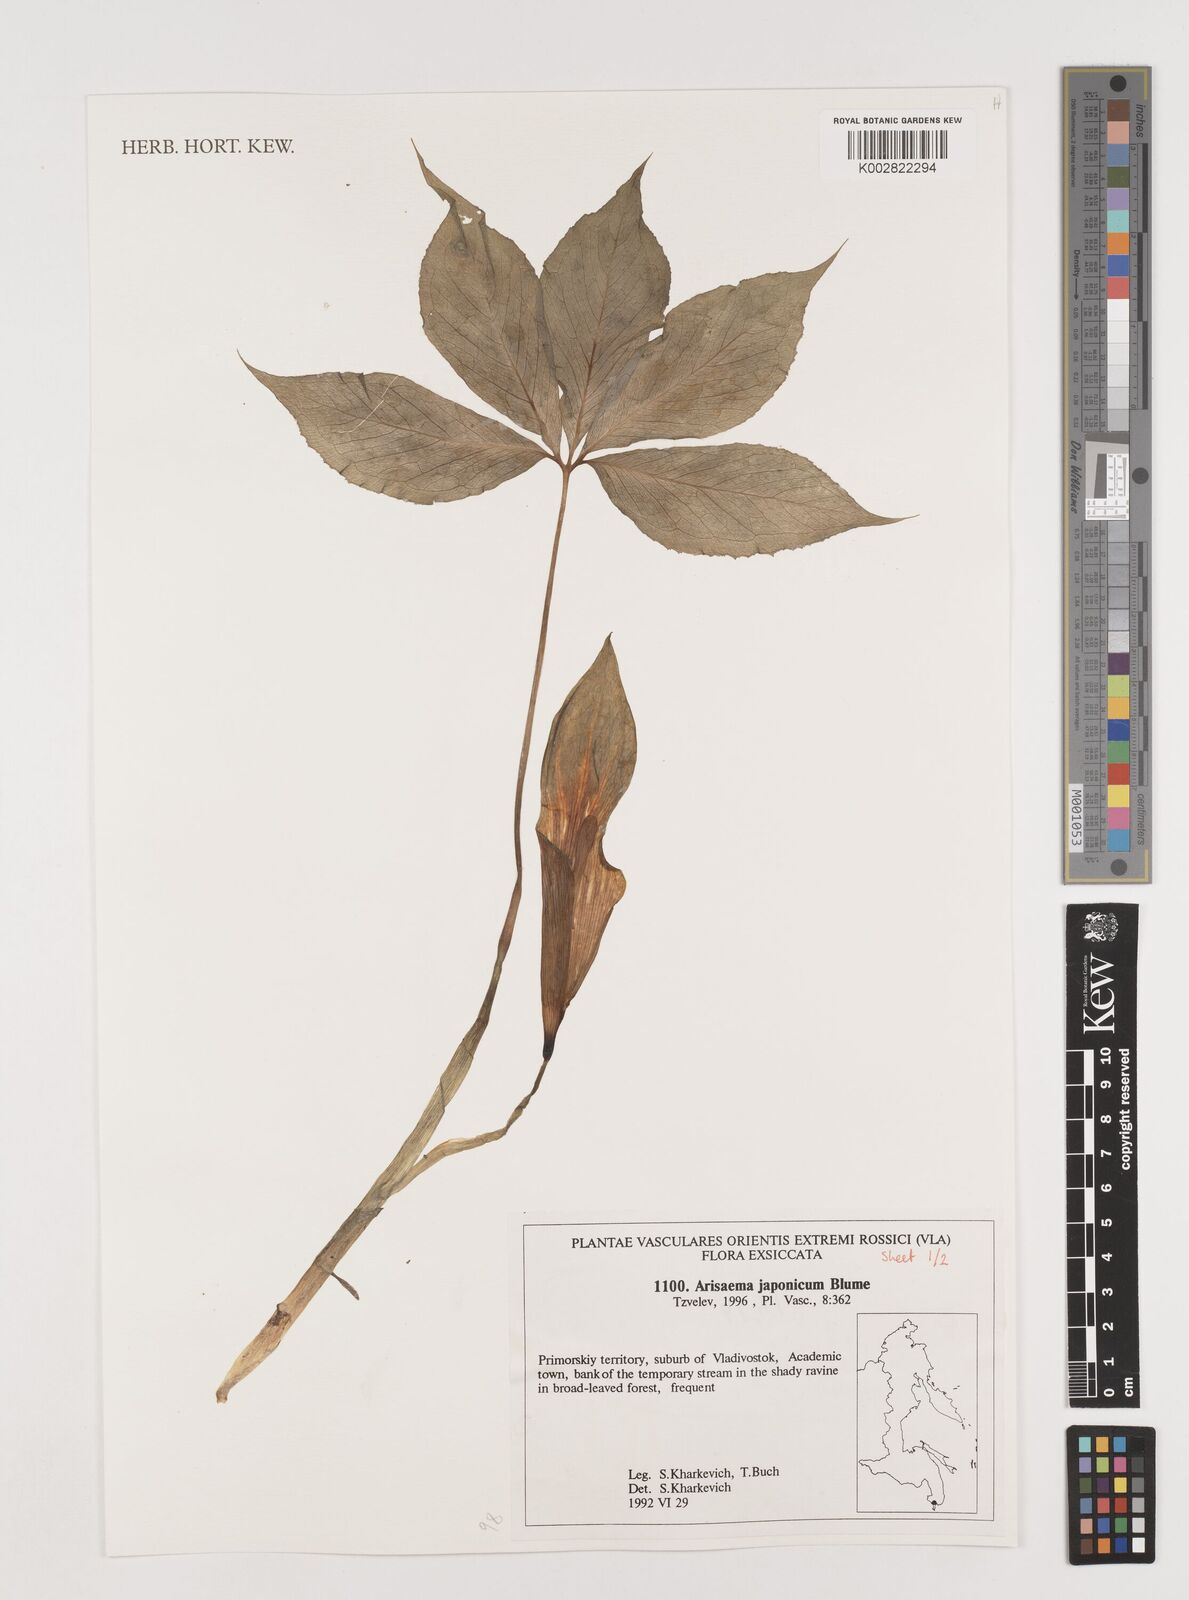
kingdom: Plantae
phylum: Tracheophyta
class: Liliopsida
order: Alismatales
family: Araceae
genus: Arisaema
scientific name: Arisaema japonicum
